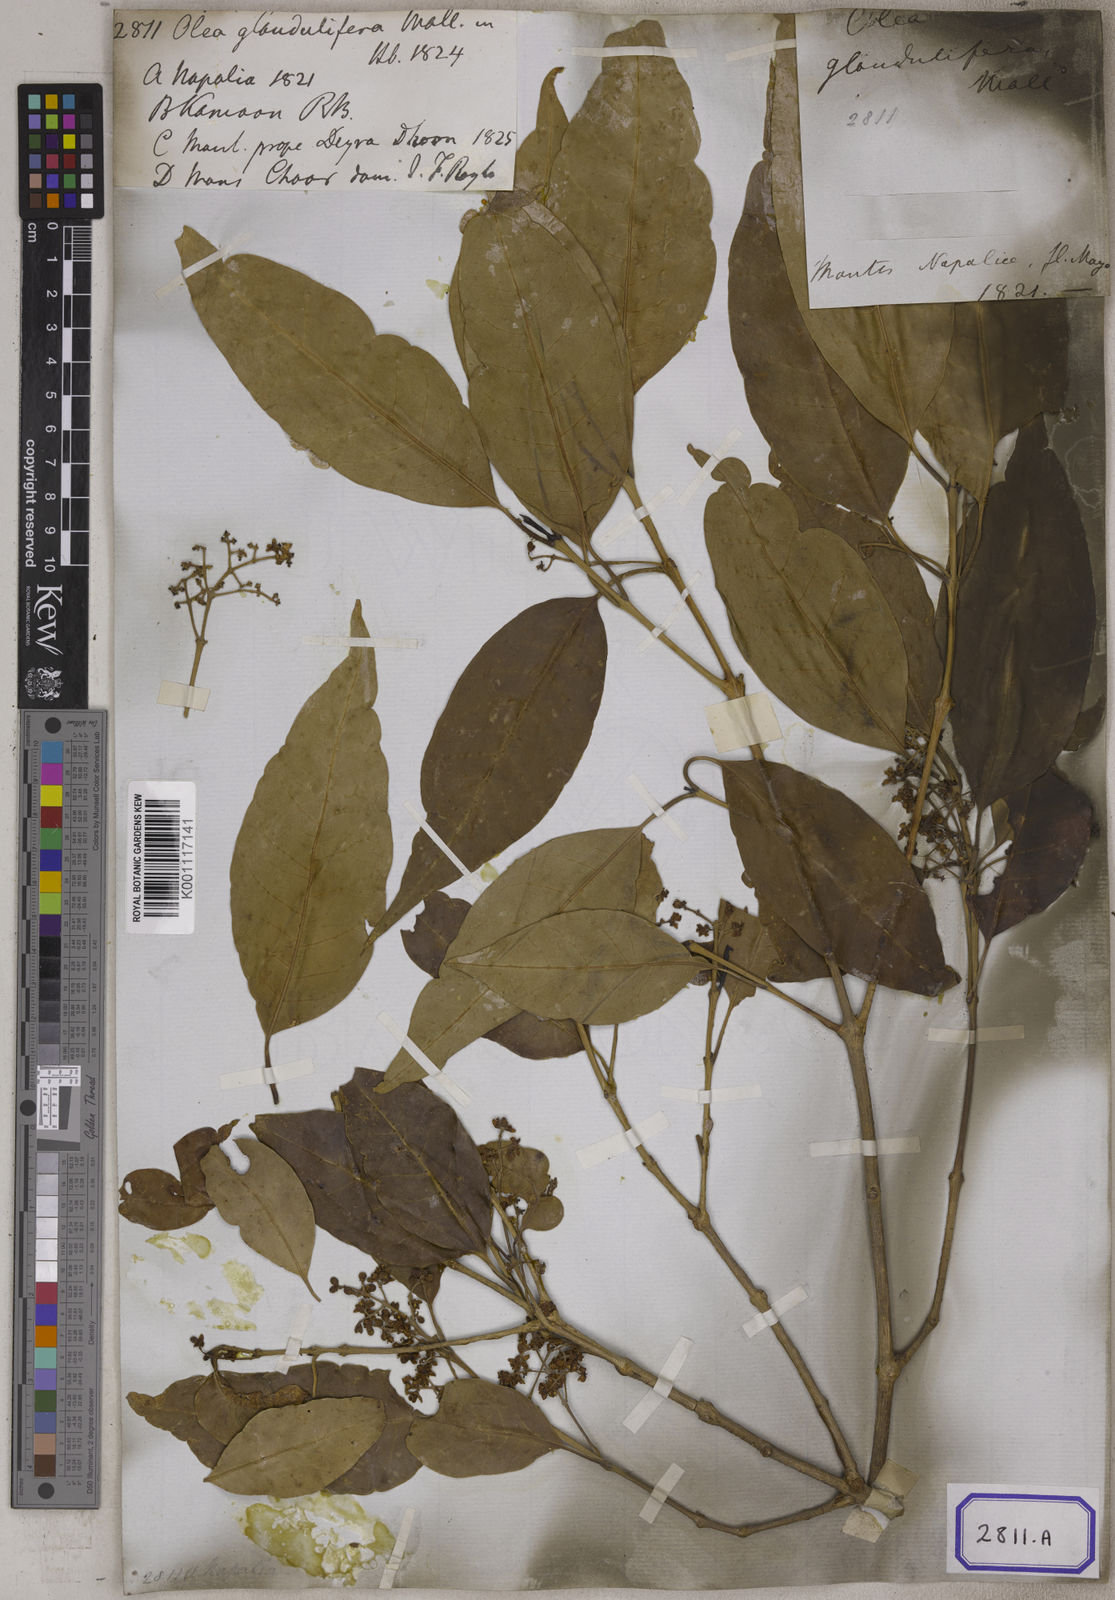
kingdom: Plantae
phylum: Tracheophyta
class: Magnoliopsida
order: Lamiales
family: Oleaceae
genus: Olea
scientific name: Olea paniculata
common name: Australian olive
